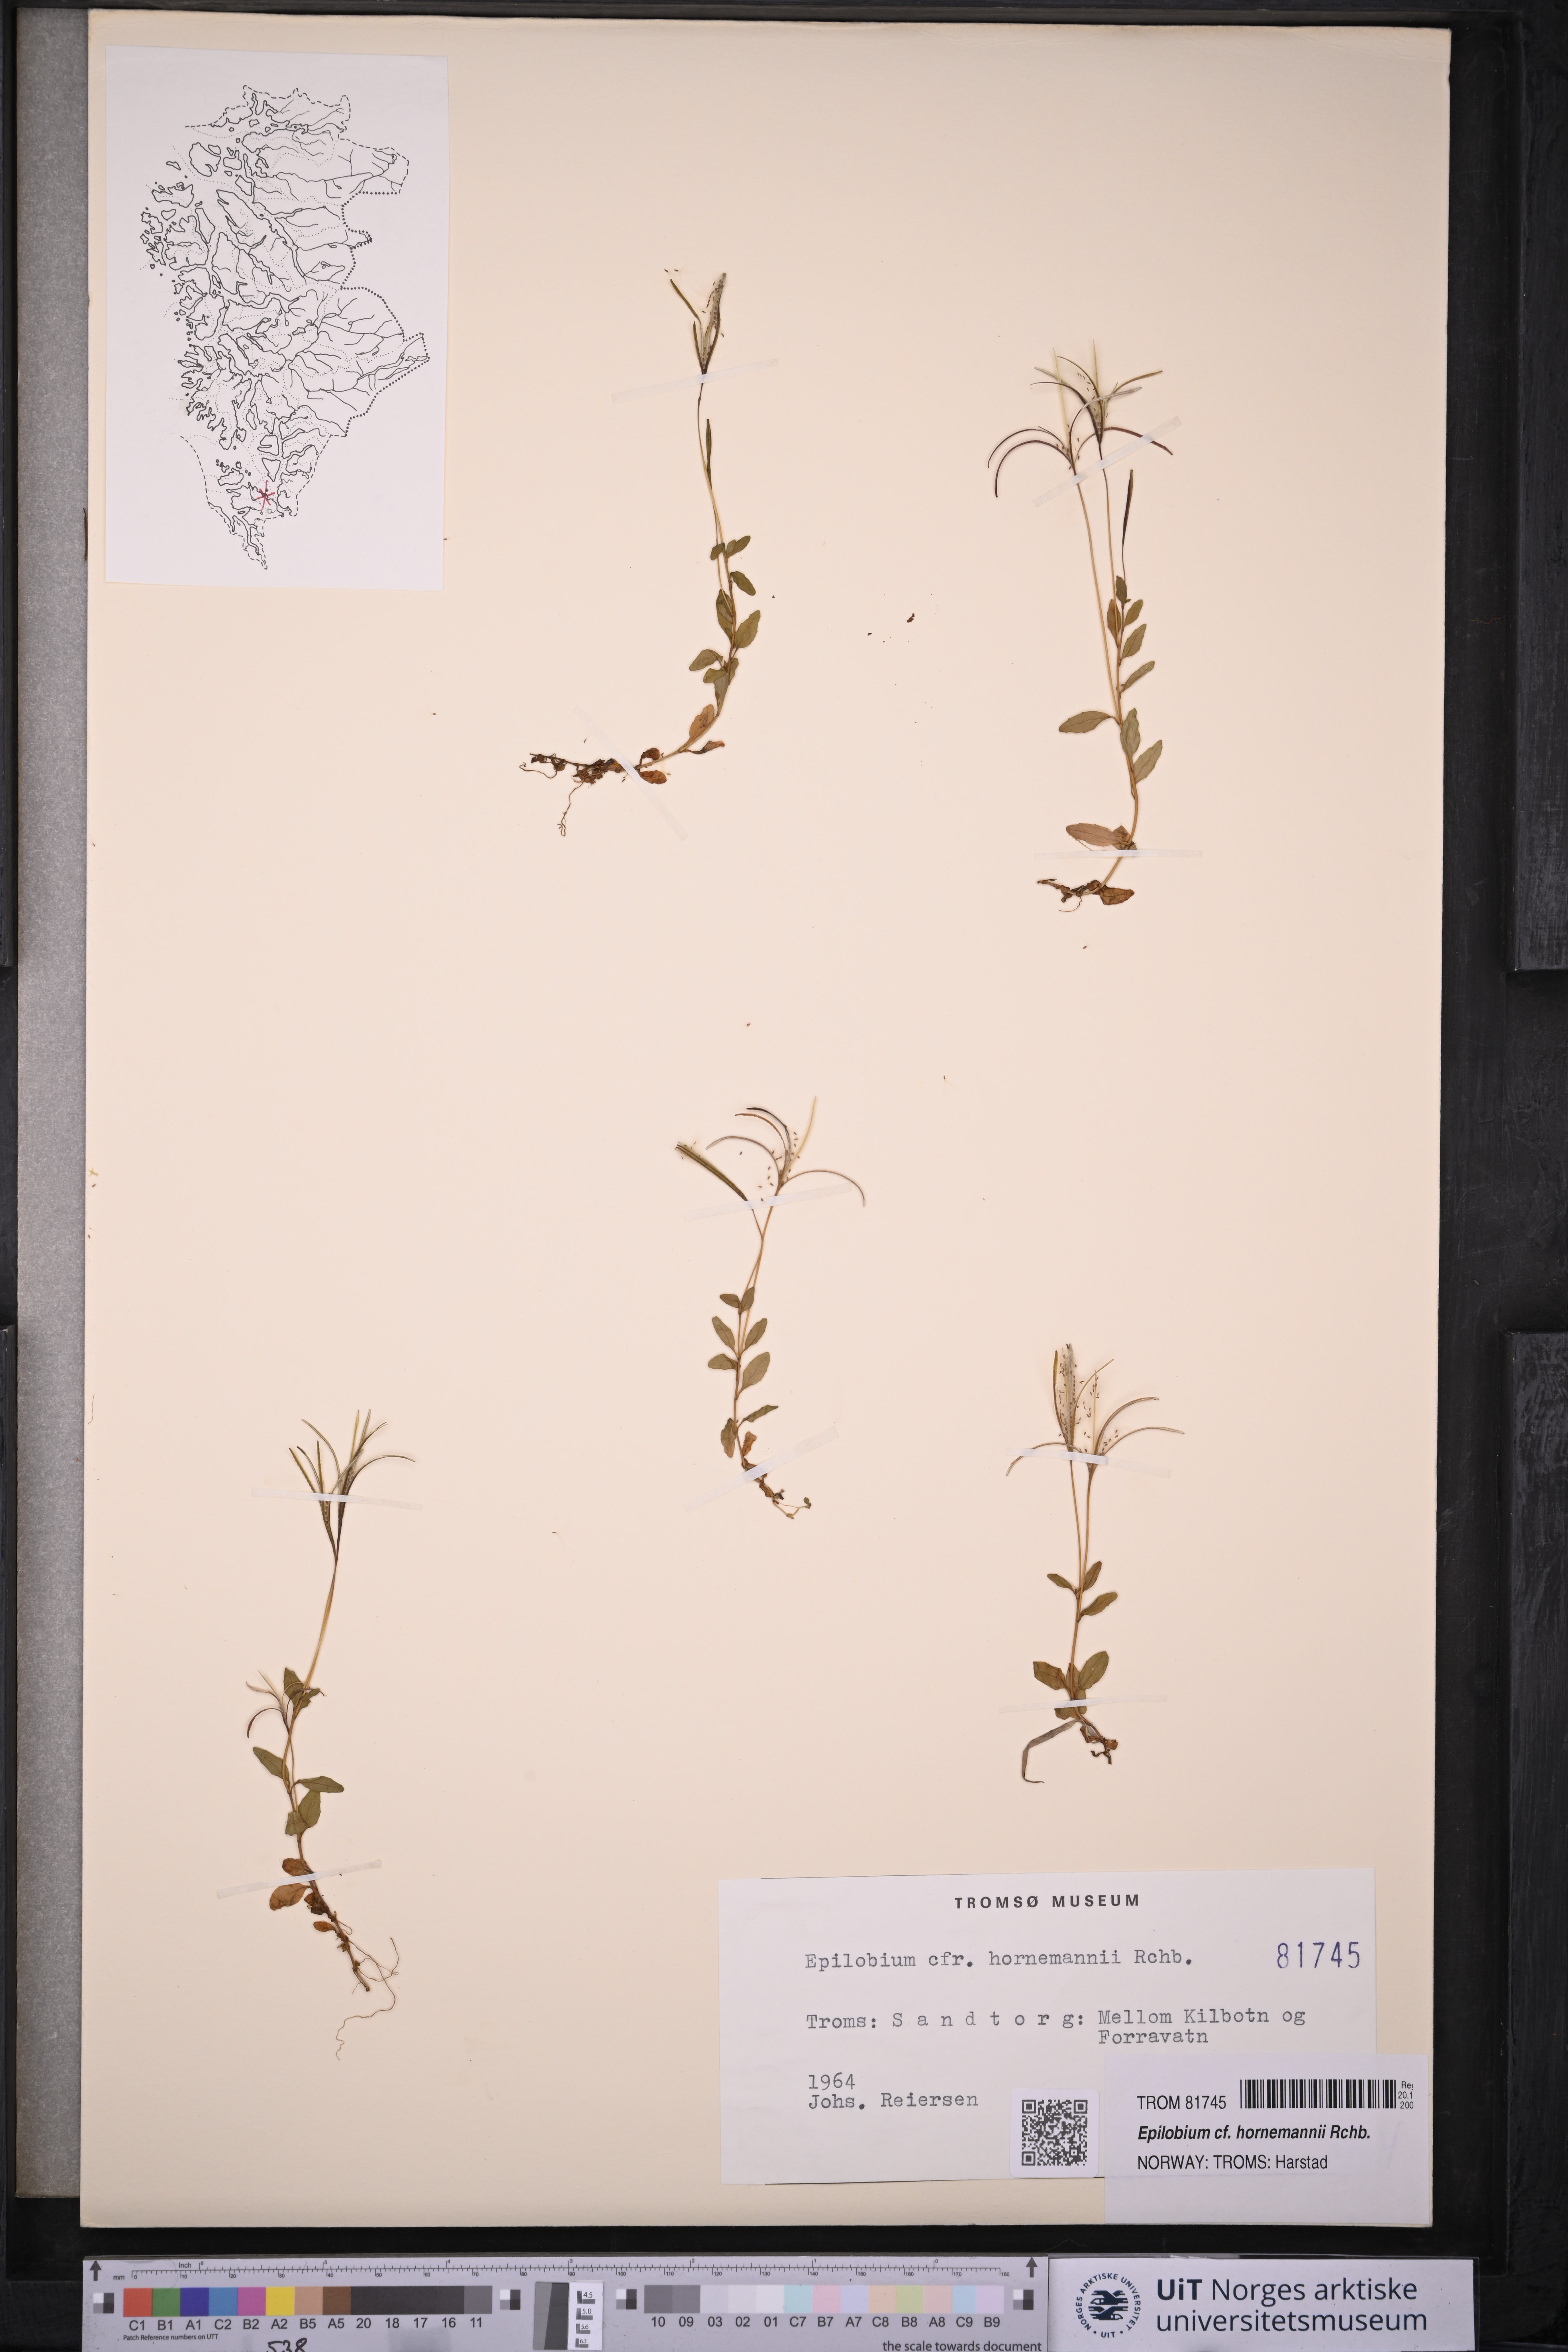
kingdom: Plantae
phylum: Tracheophyta
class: Magnoliopsida
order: Myrtales
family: Onagraceae
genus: Epilobium
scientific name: Epilobium hornemannii
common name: Hornemann's willowherb
